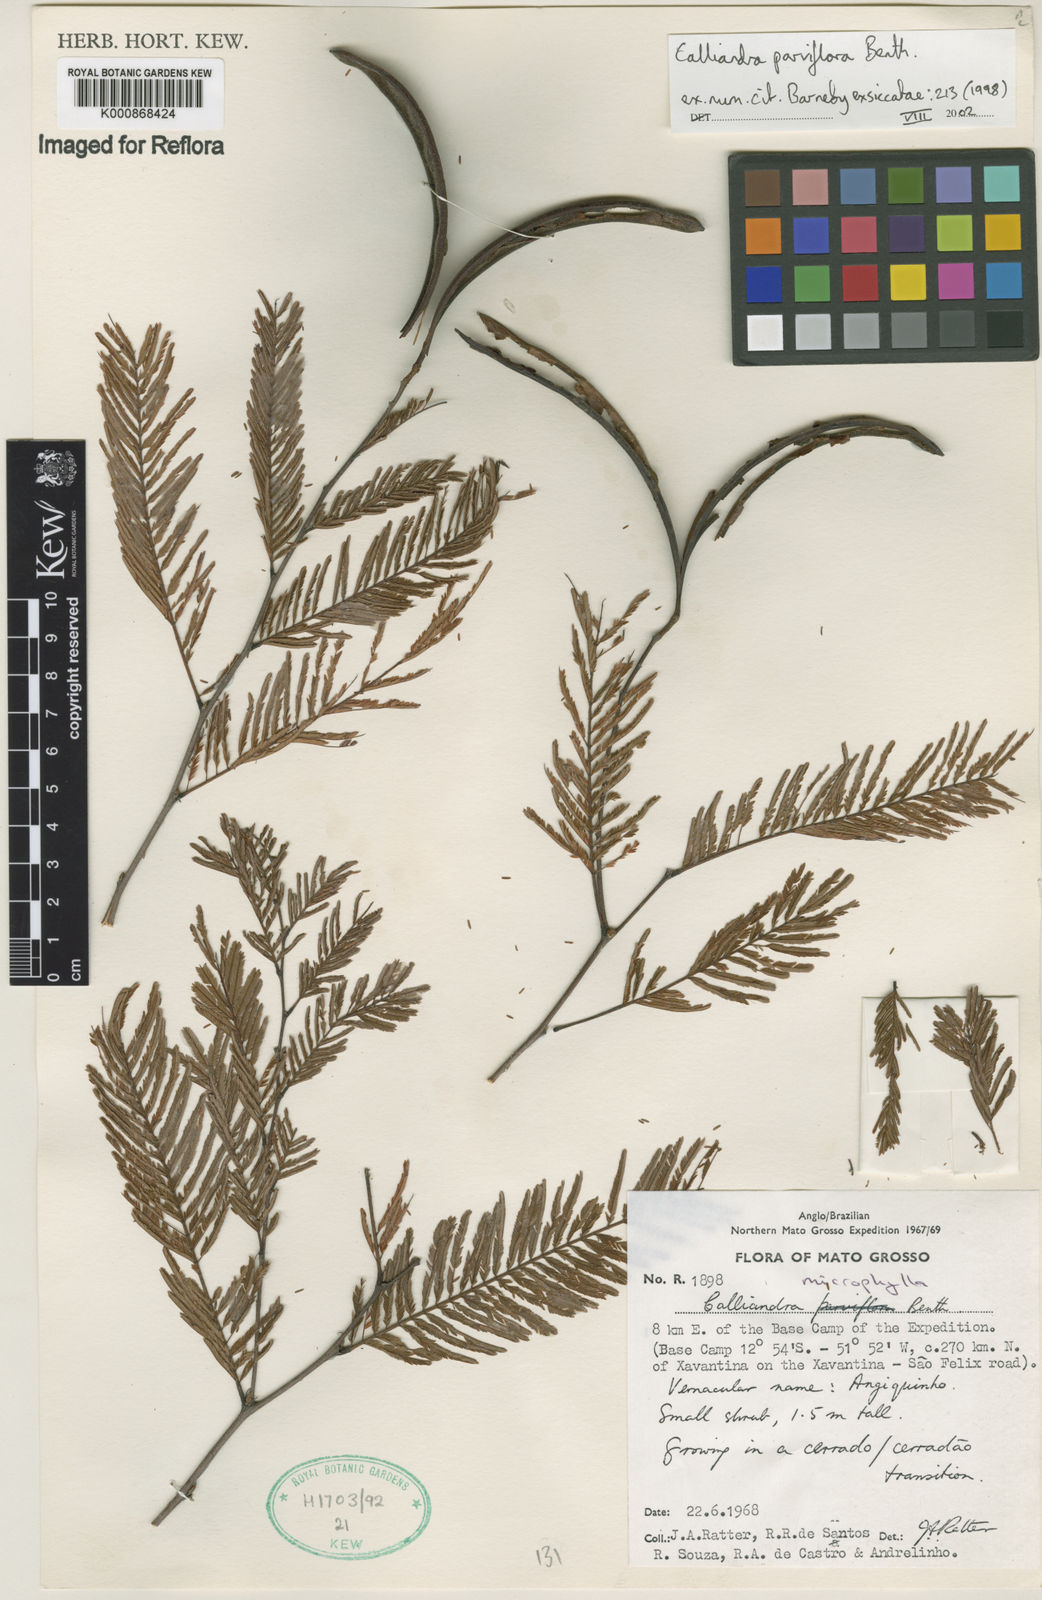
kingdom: Plantae
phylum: Tracheophyta
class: Magnoliopsida
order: Fabales
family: Fabaceae
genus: Calliandra
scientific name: Calliandra parviflora
